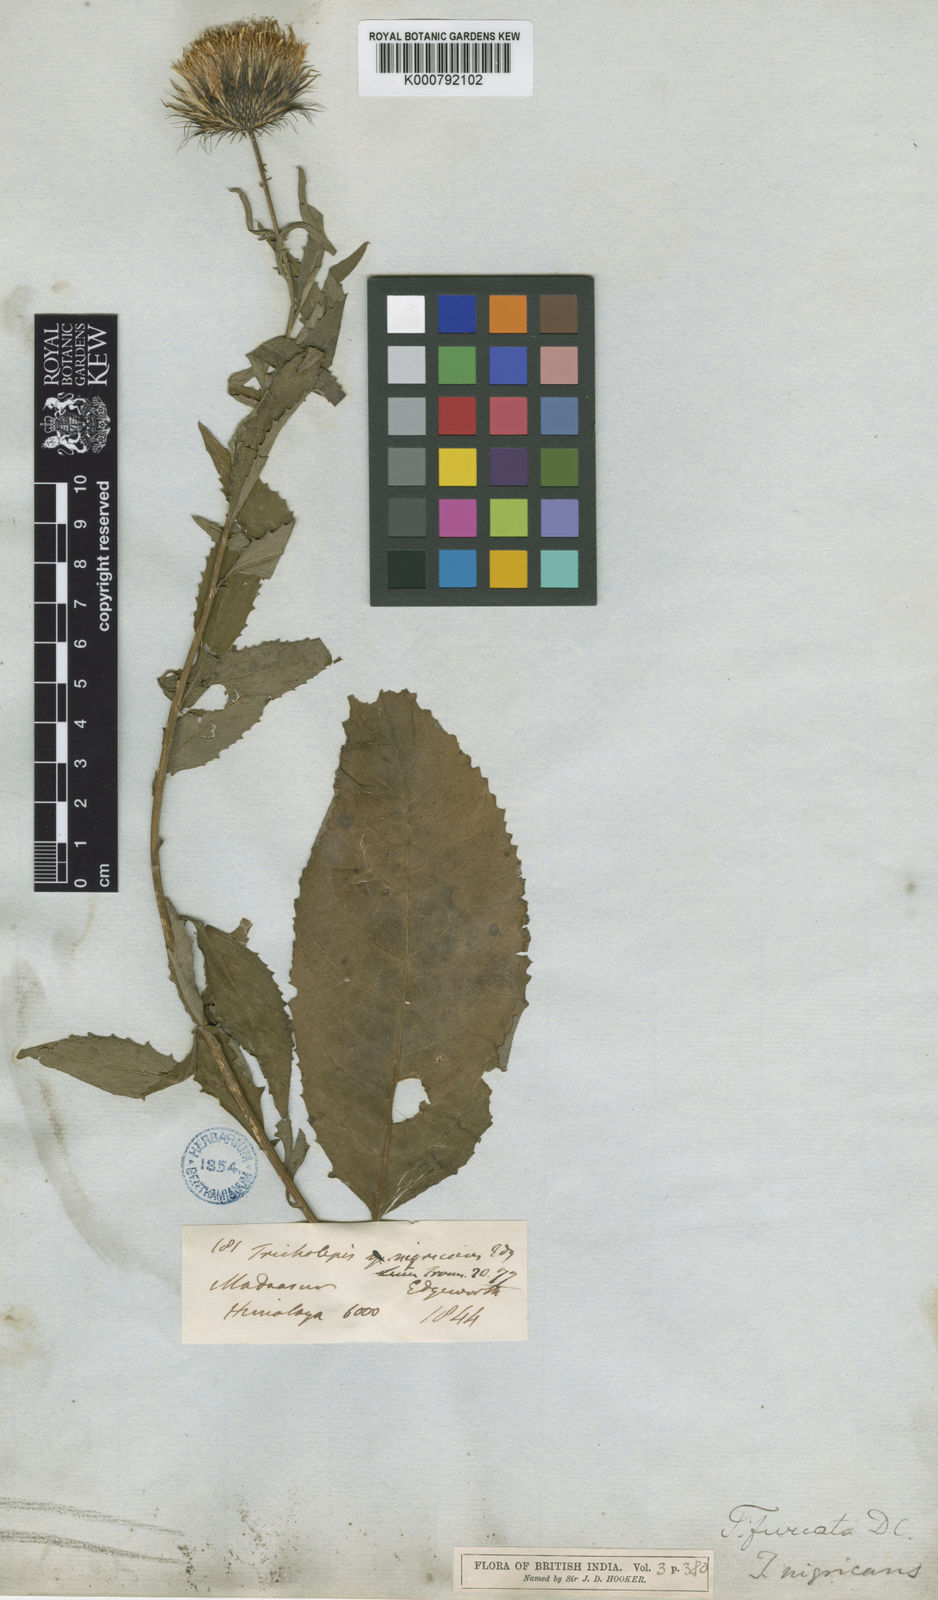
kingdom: Plantae
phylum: Tracheophyta
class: Magnoliopsida
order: Asterales
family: Asteraceae
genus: Tricholepis
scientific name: Tricholepis furcata
